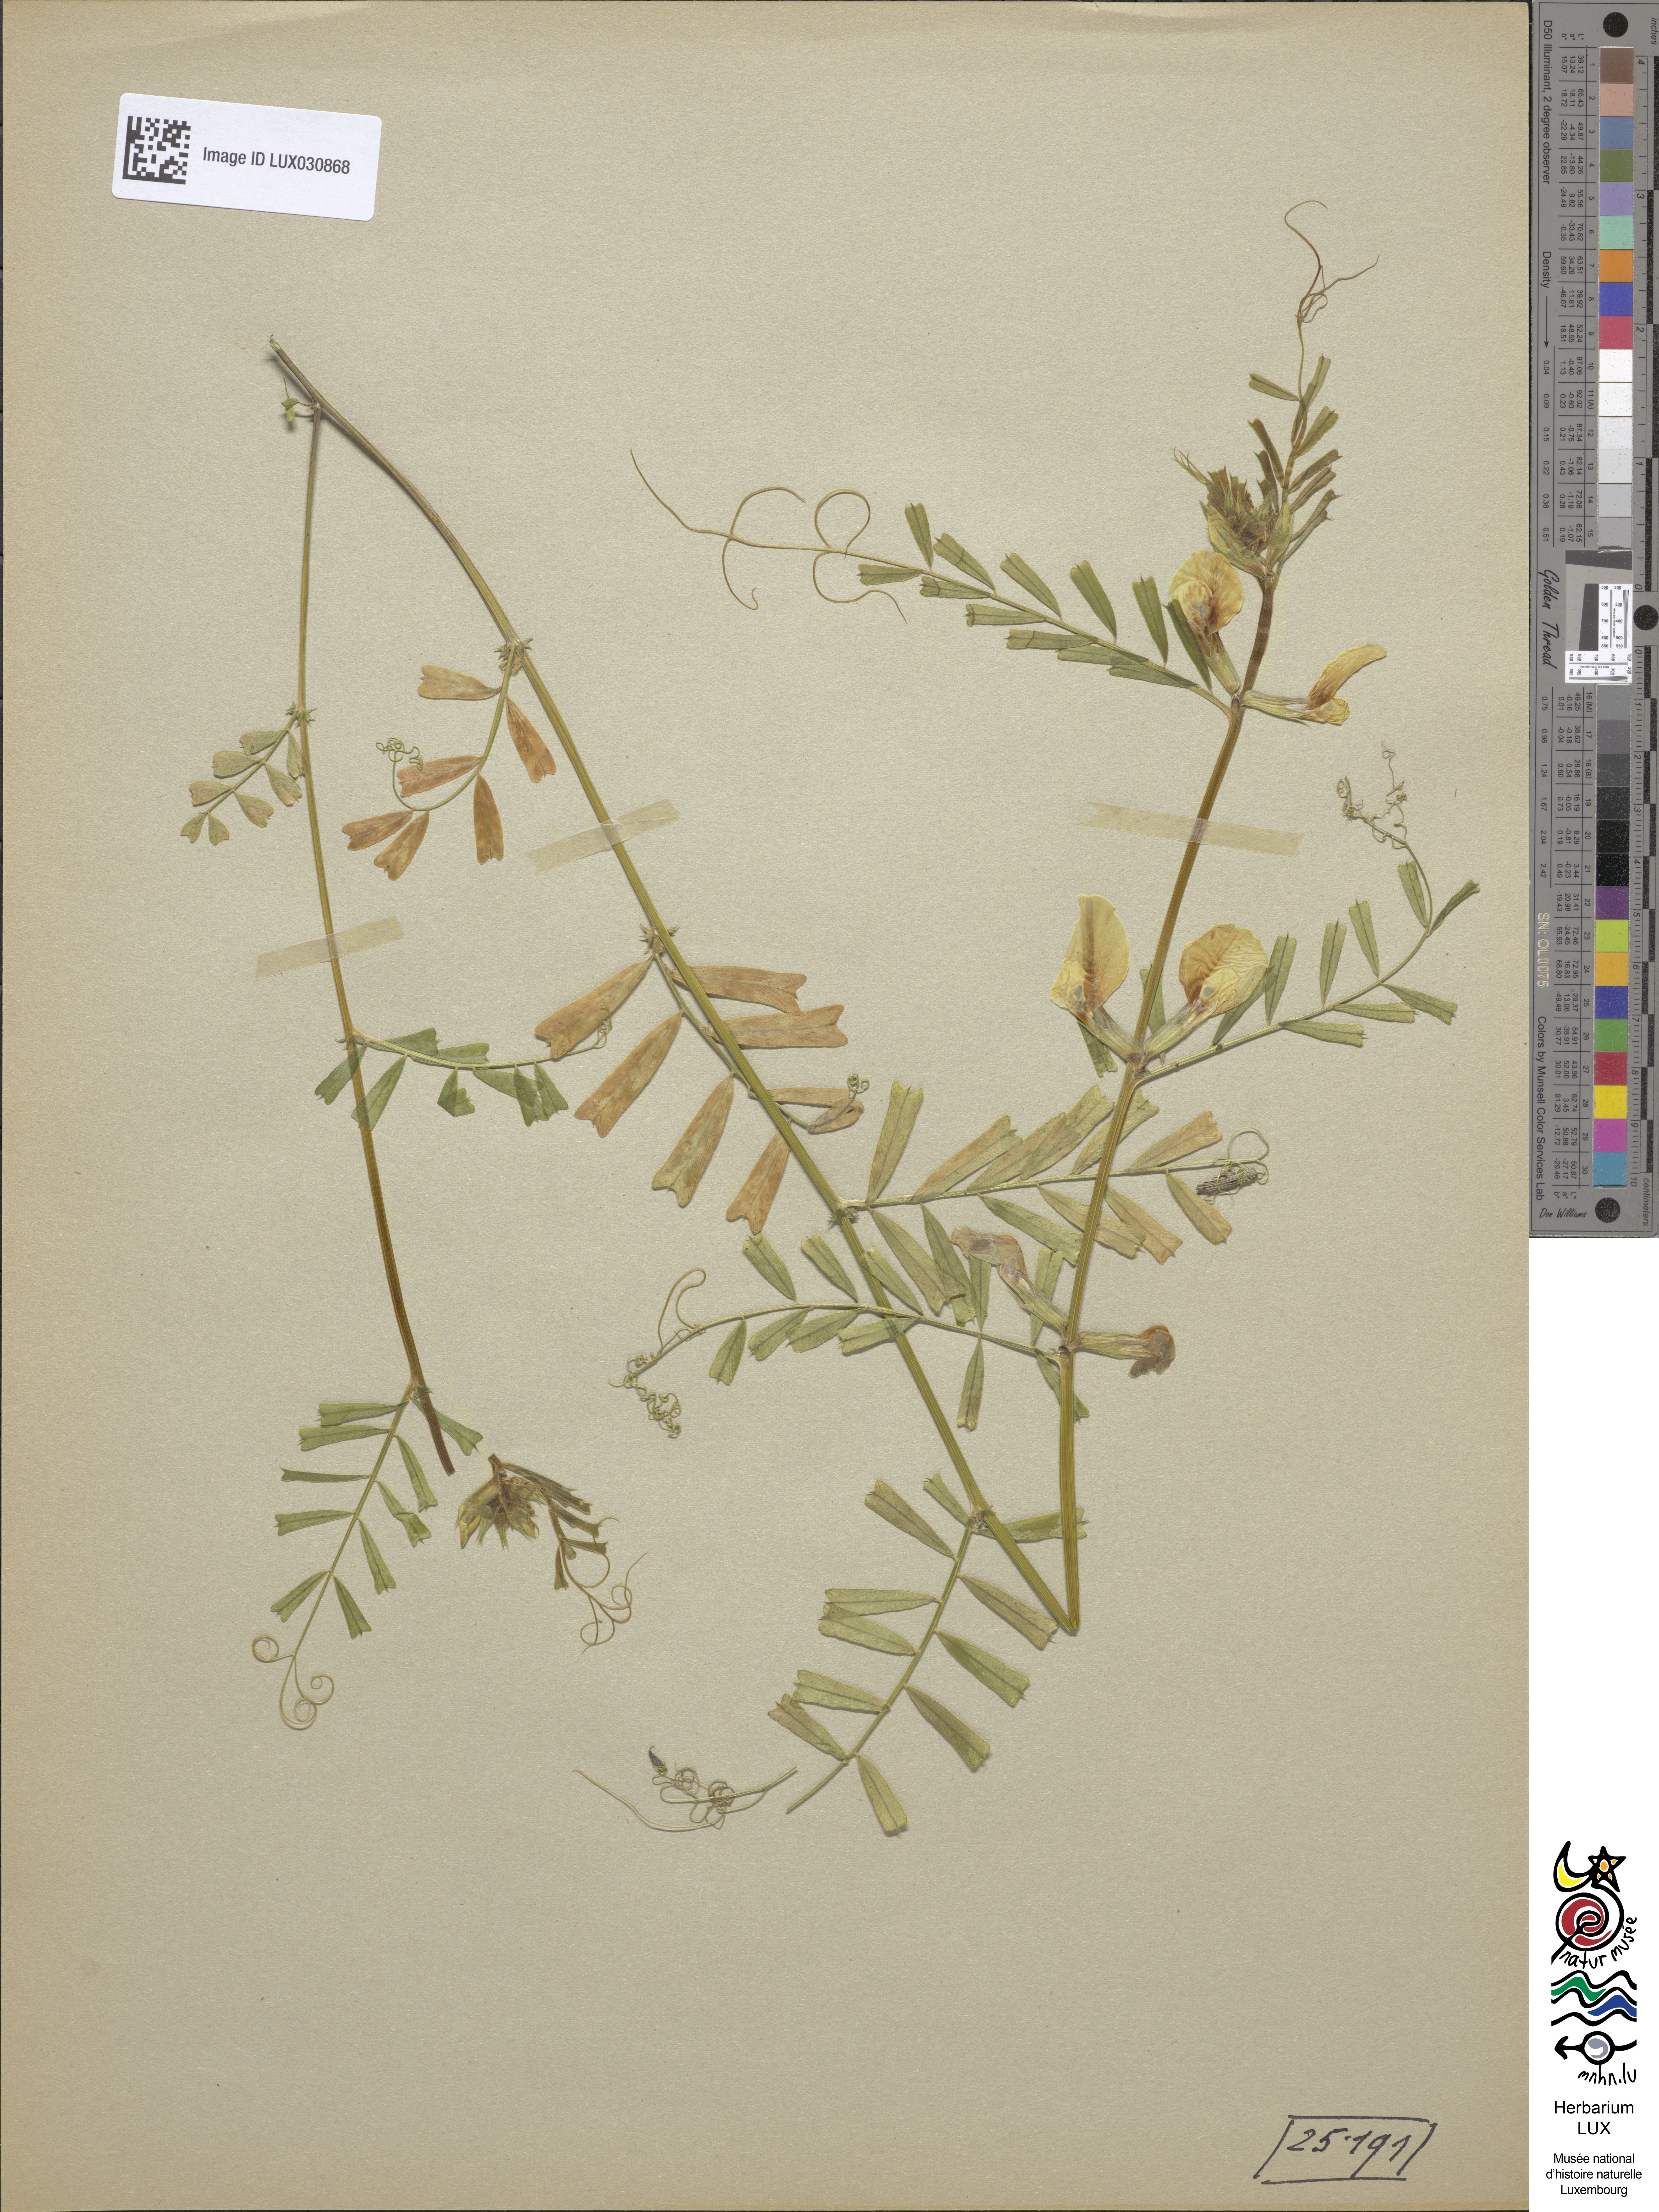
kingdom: Plantae
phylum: Tracheophyta
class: Magnoliopsida
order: Fabales
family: Fabaceae
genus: Vicia
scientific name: Vicia grandiflora
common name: Large yellow vetch
